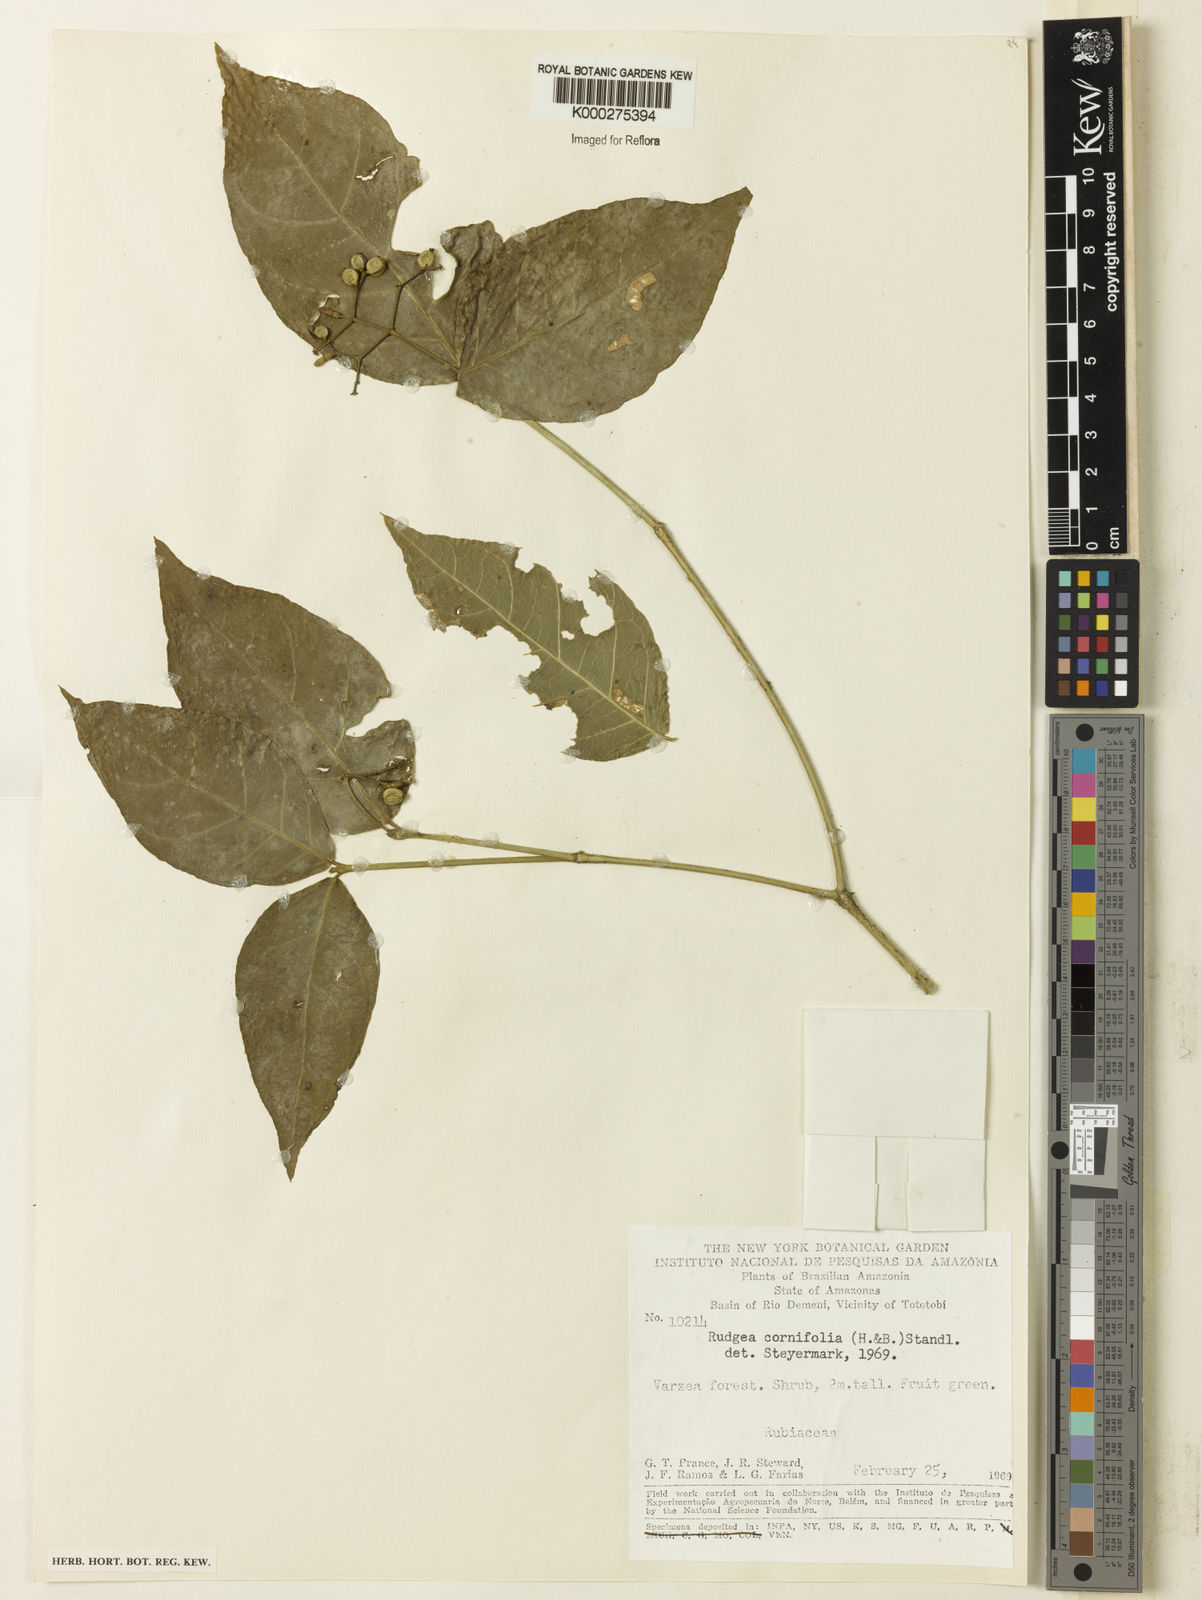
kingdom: Plantae
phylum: Tracheophyta
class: Magnoliopsida
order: Gentianales
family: Rubiaceae
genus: Rudgea
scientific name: Rudgea cornifolia
